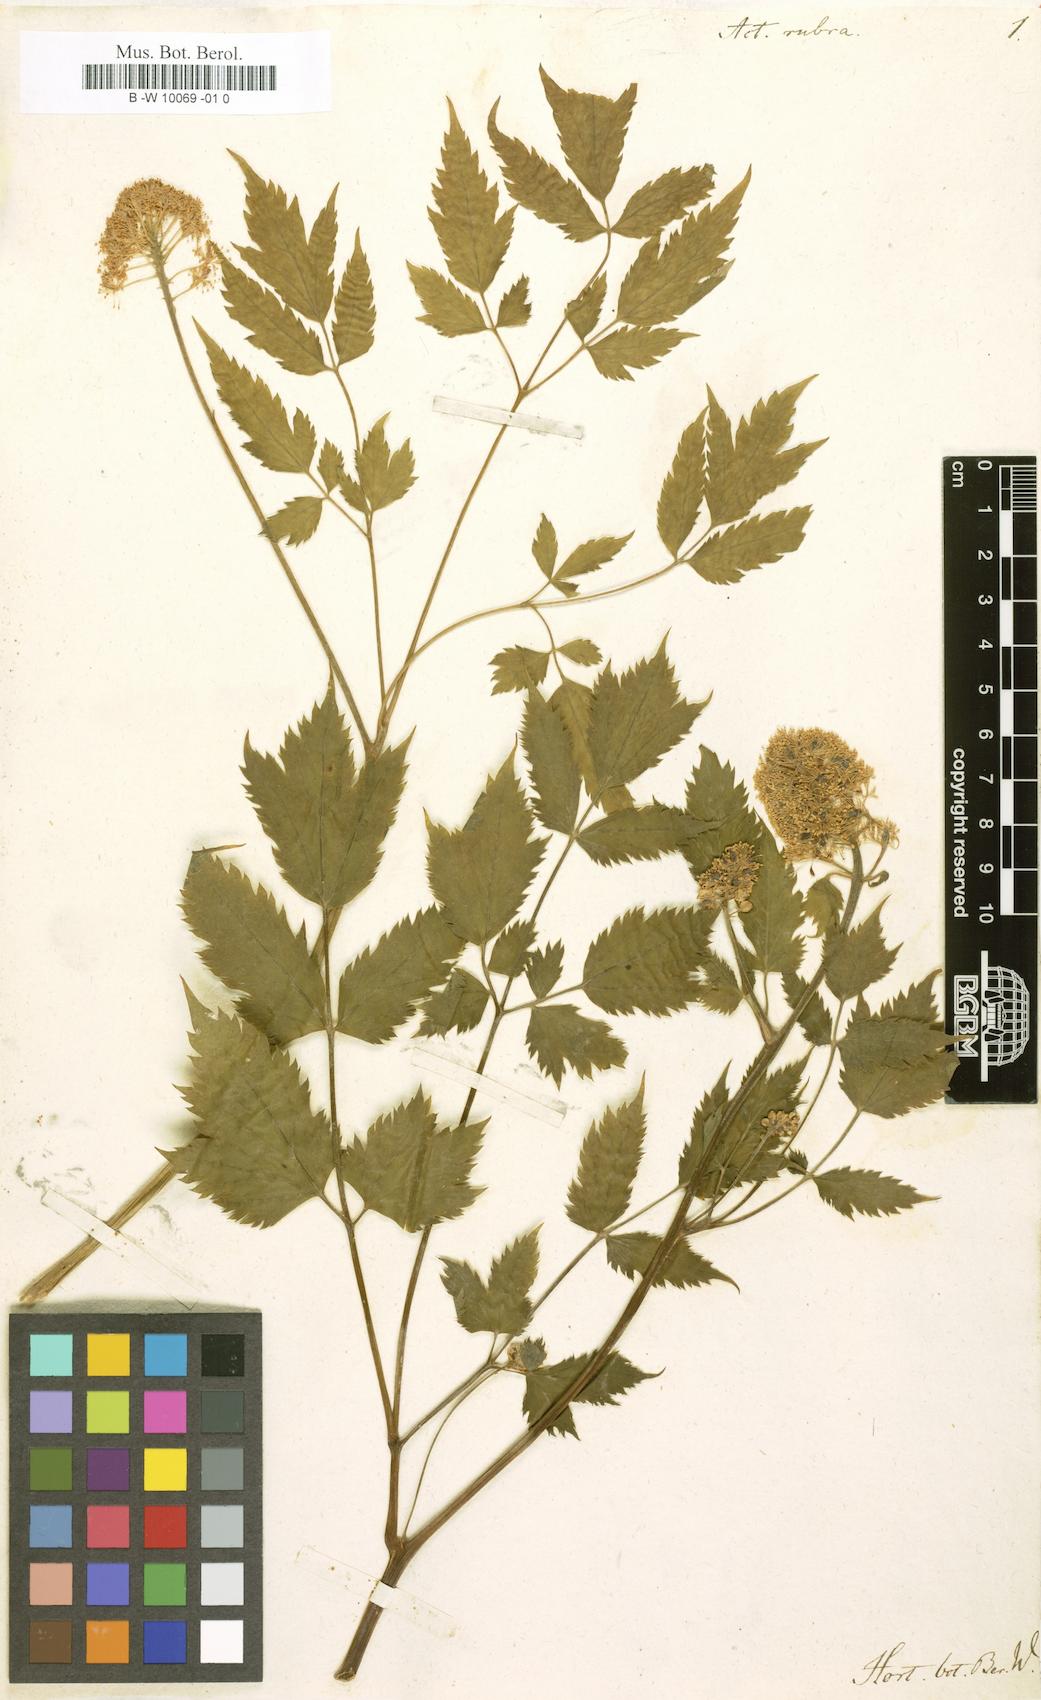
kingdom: Plantae
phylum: Tracheophyta
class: Magnoliopsida
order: Ranunculales
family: Ranunculaceae
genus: Actaea
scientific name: Actaea rubra
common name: Red baneberry
